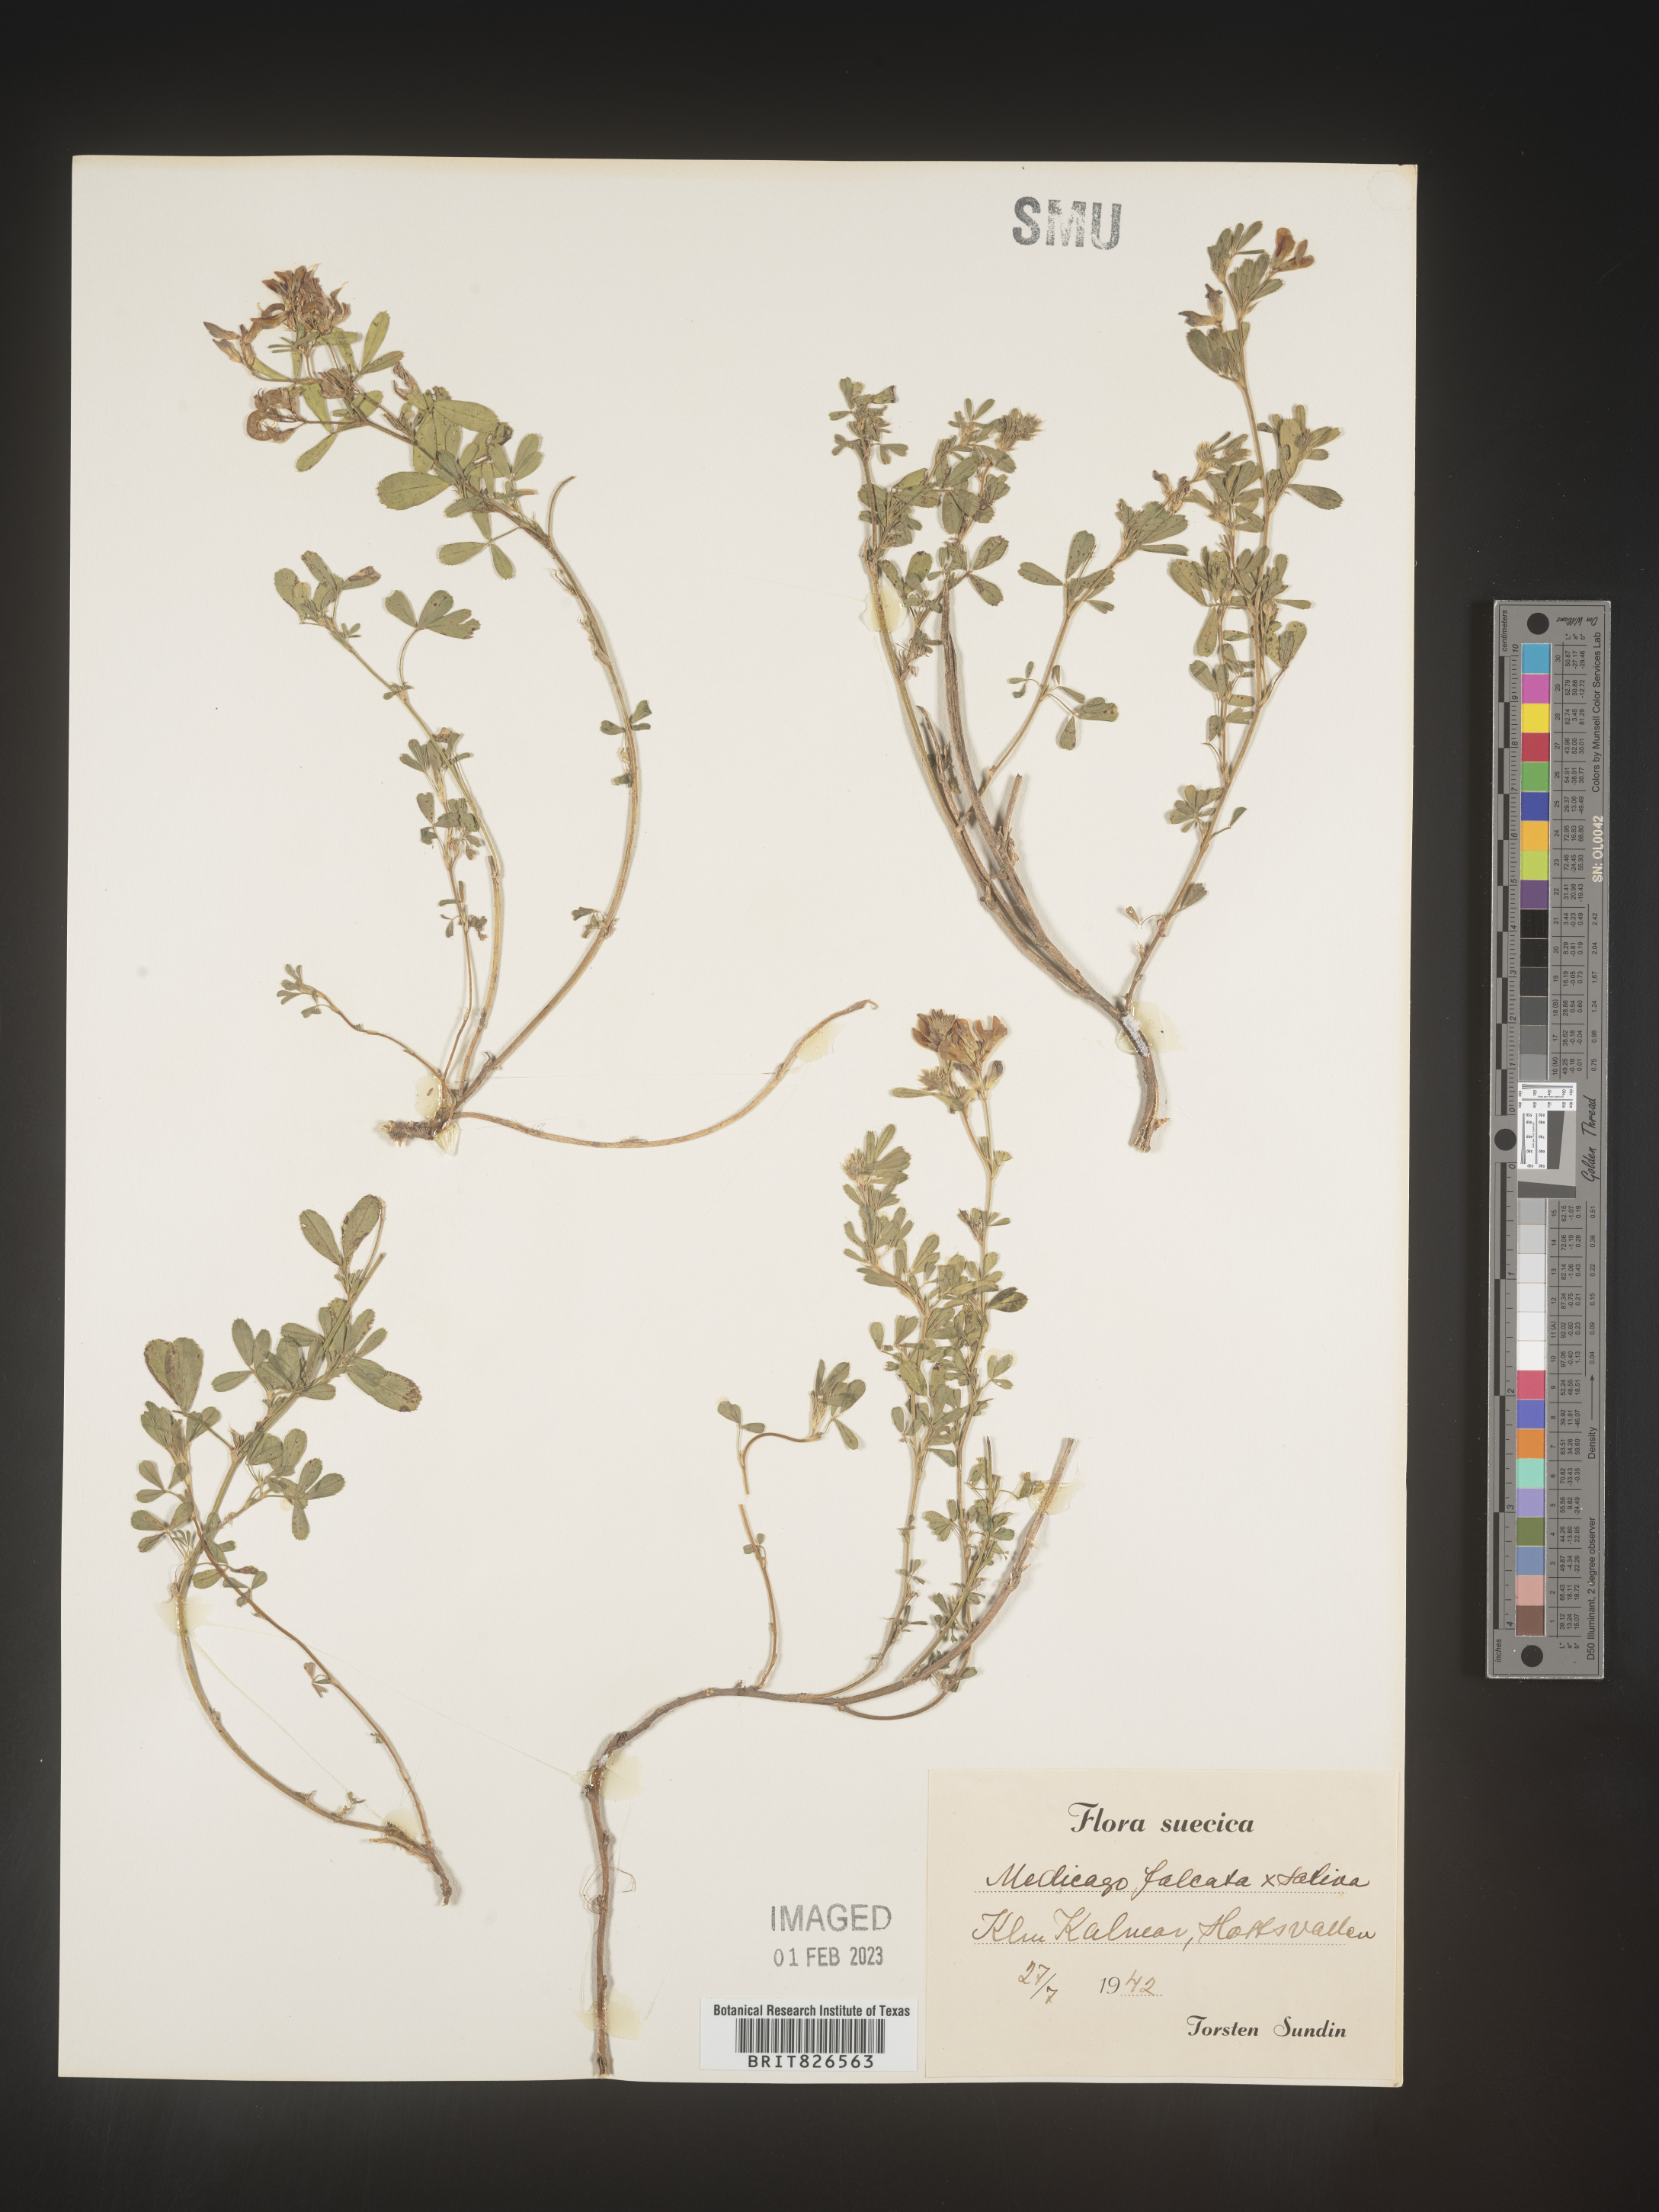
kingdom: Plantae
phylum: Tracheophyta
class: Magnoliopsida
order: Fabales
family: Fabaceae
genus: Medicago
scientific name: Medicago
